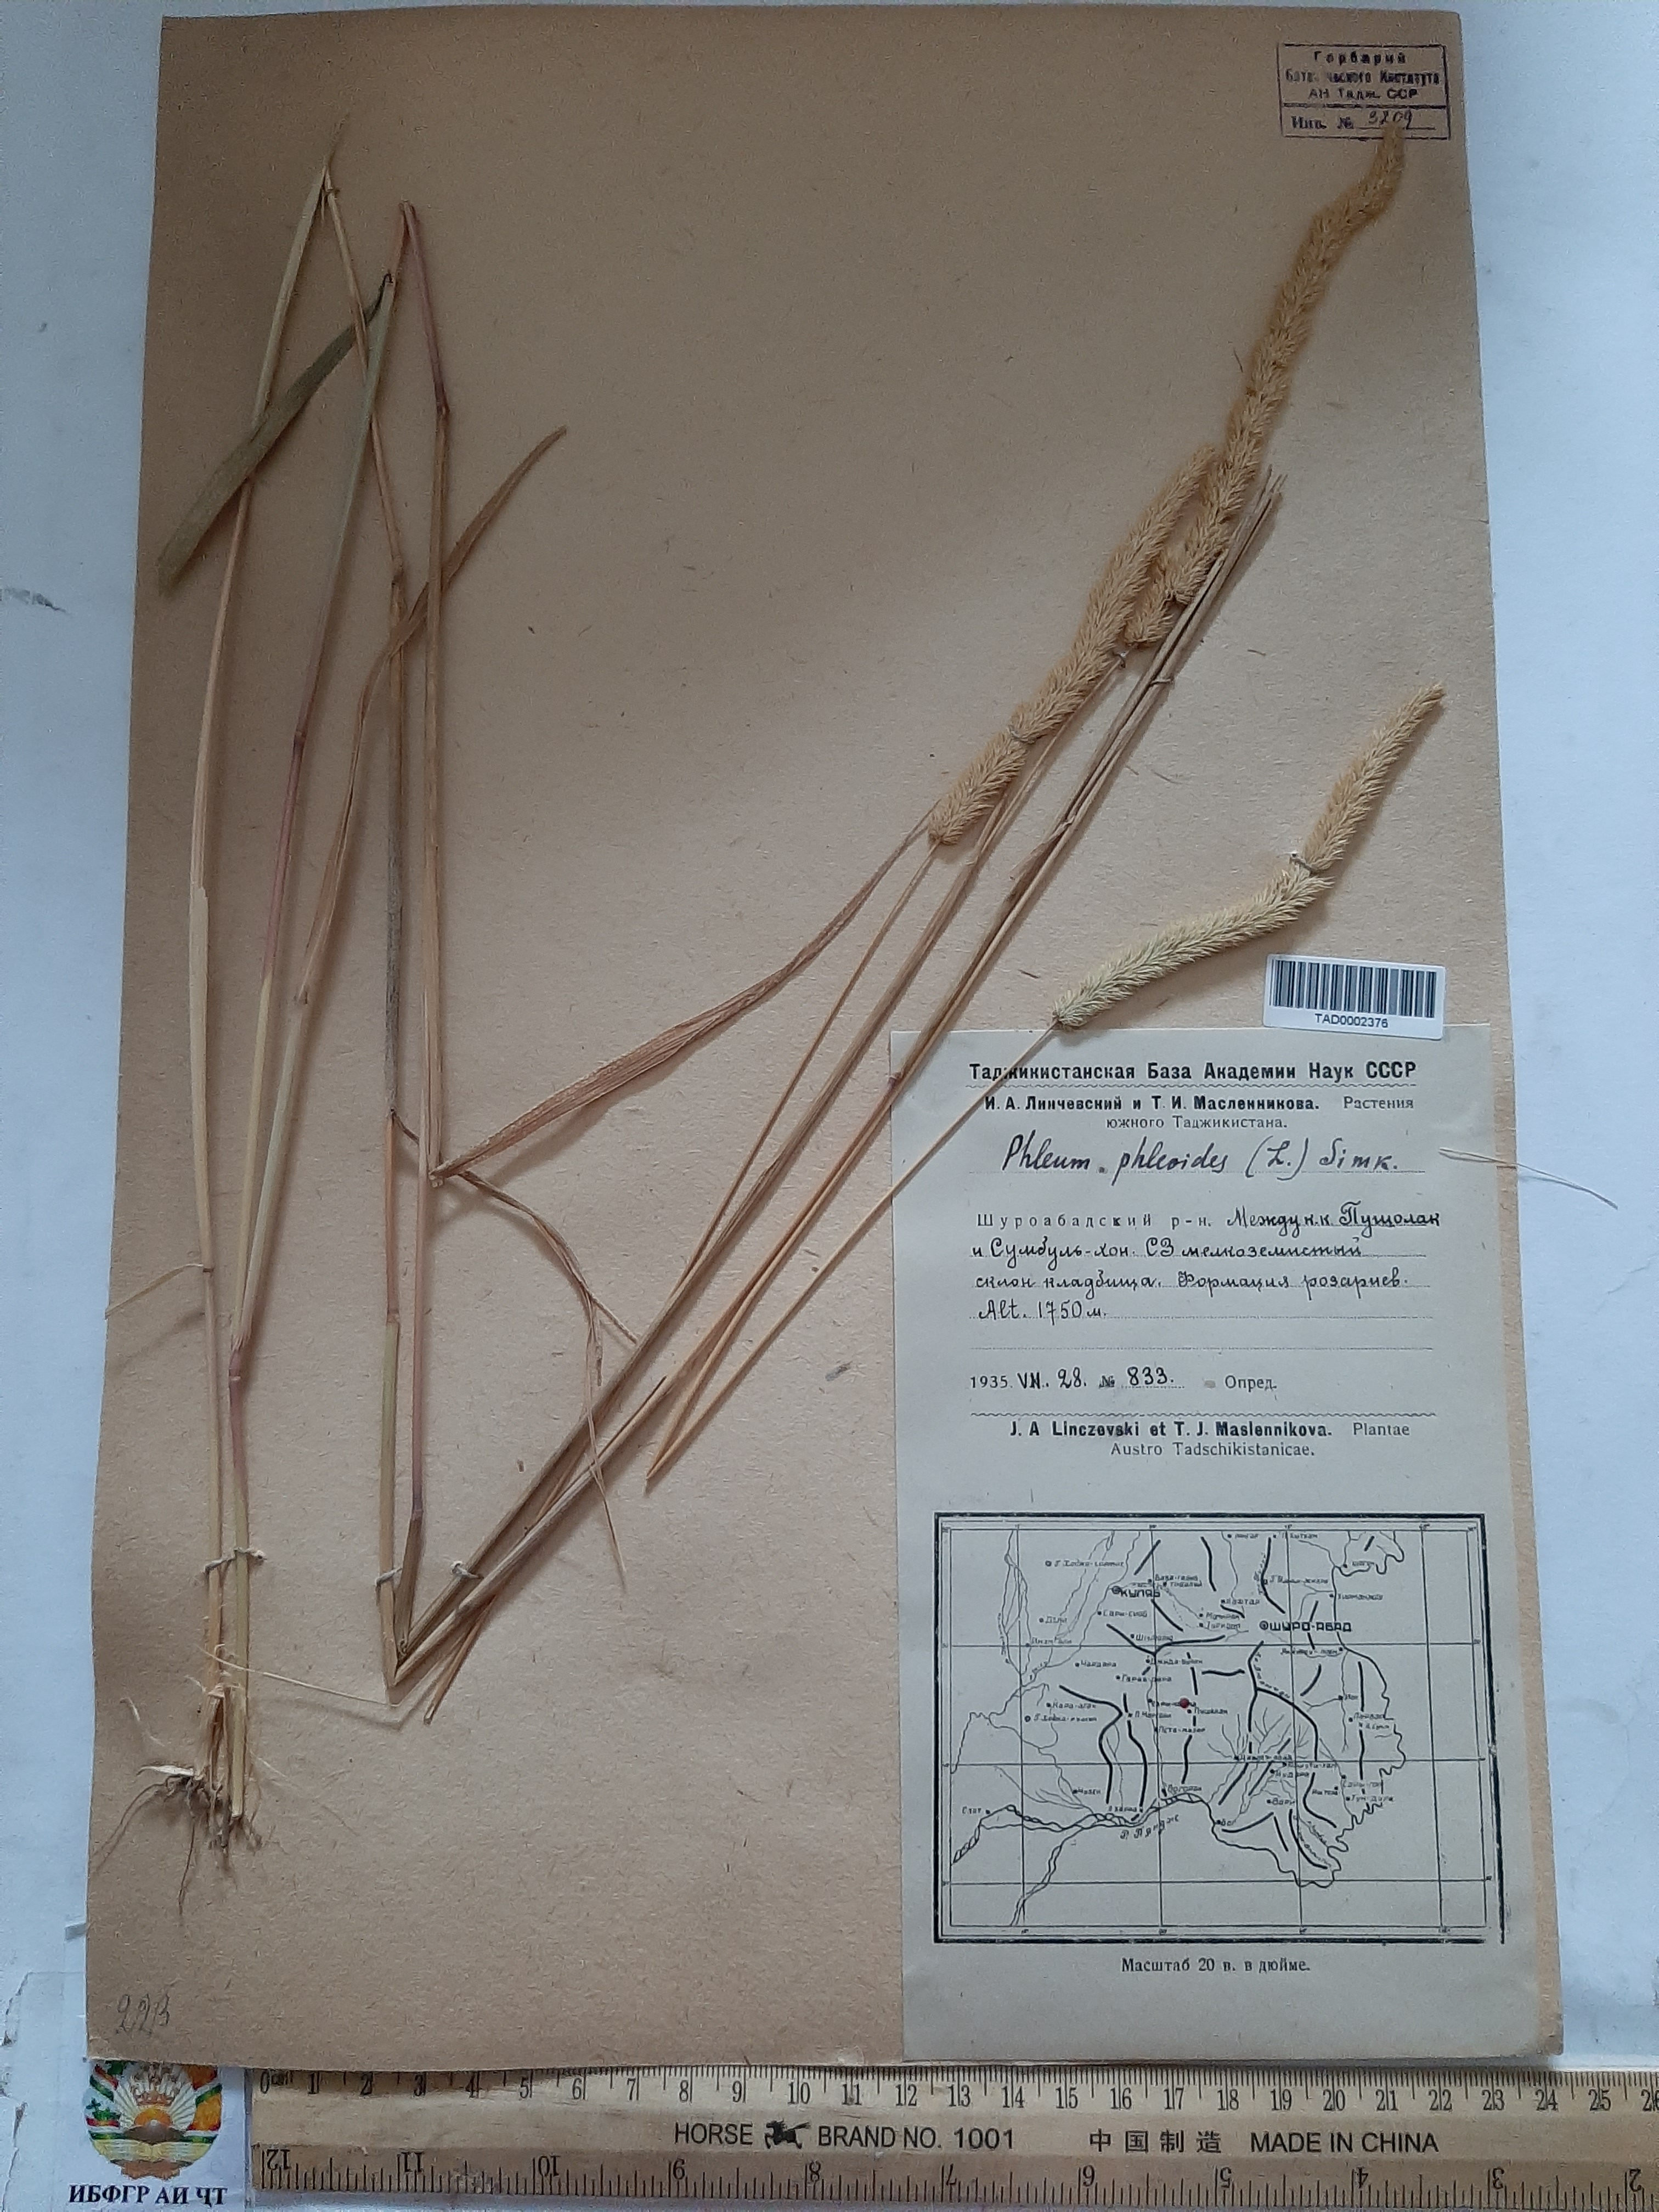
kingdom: Plantae
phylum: Tracheophyta
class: Liliopsida
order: Poales
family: Poaceae
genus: Phleum
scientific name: Phleum phleoides
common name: Purple-stem cat's-tail
